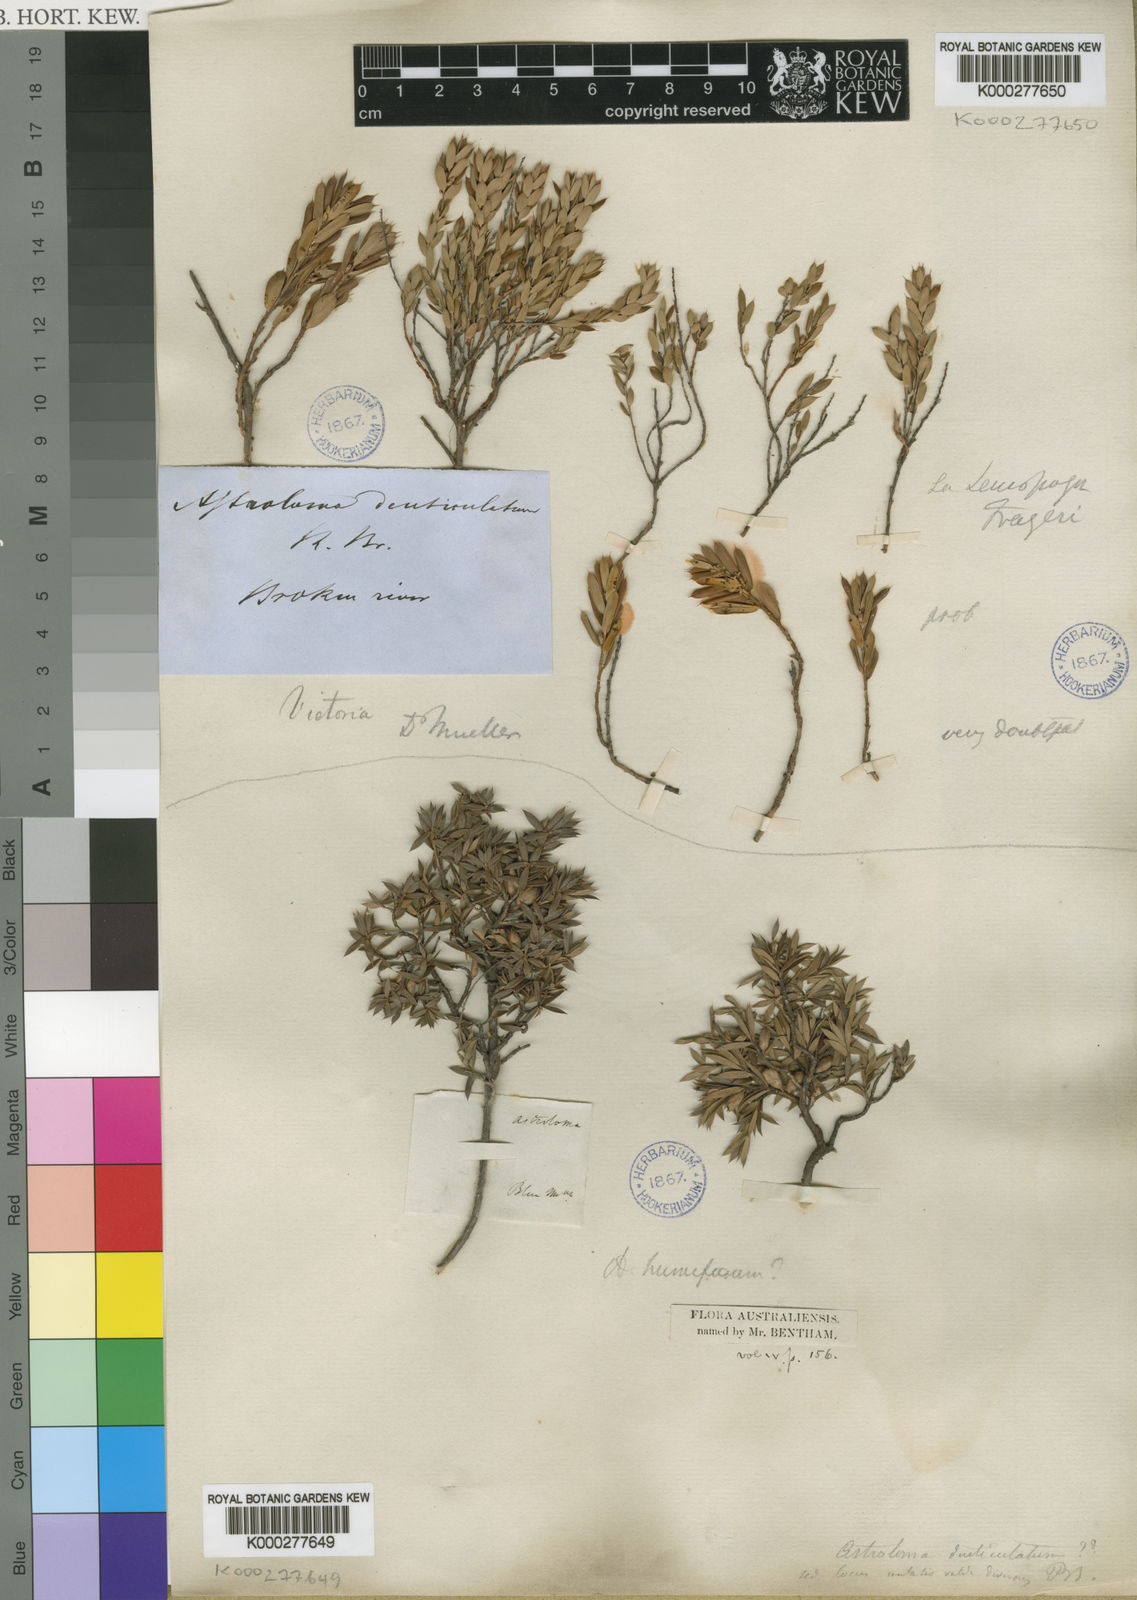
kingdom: Plantae
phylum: Tracheophyta
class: Magnoliopsida
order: Ericales
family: Ericaceae
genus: Styphelia
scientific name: Styphelia humifusa
